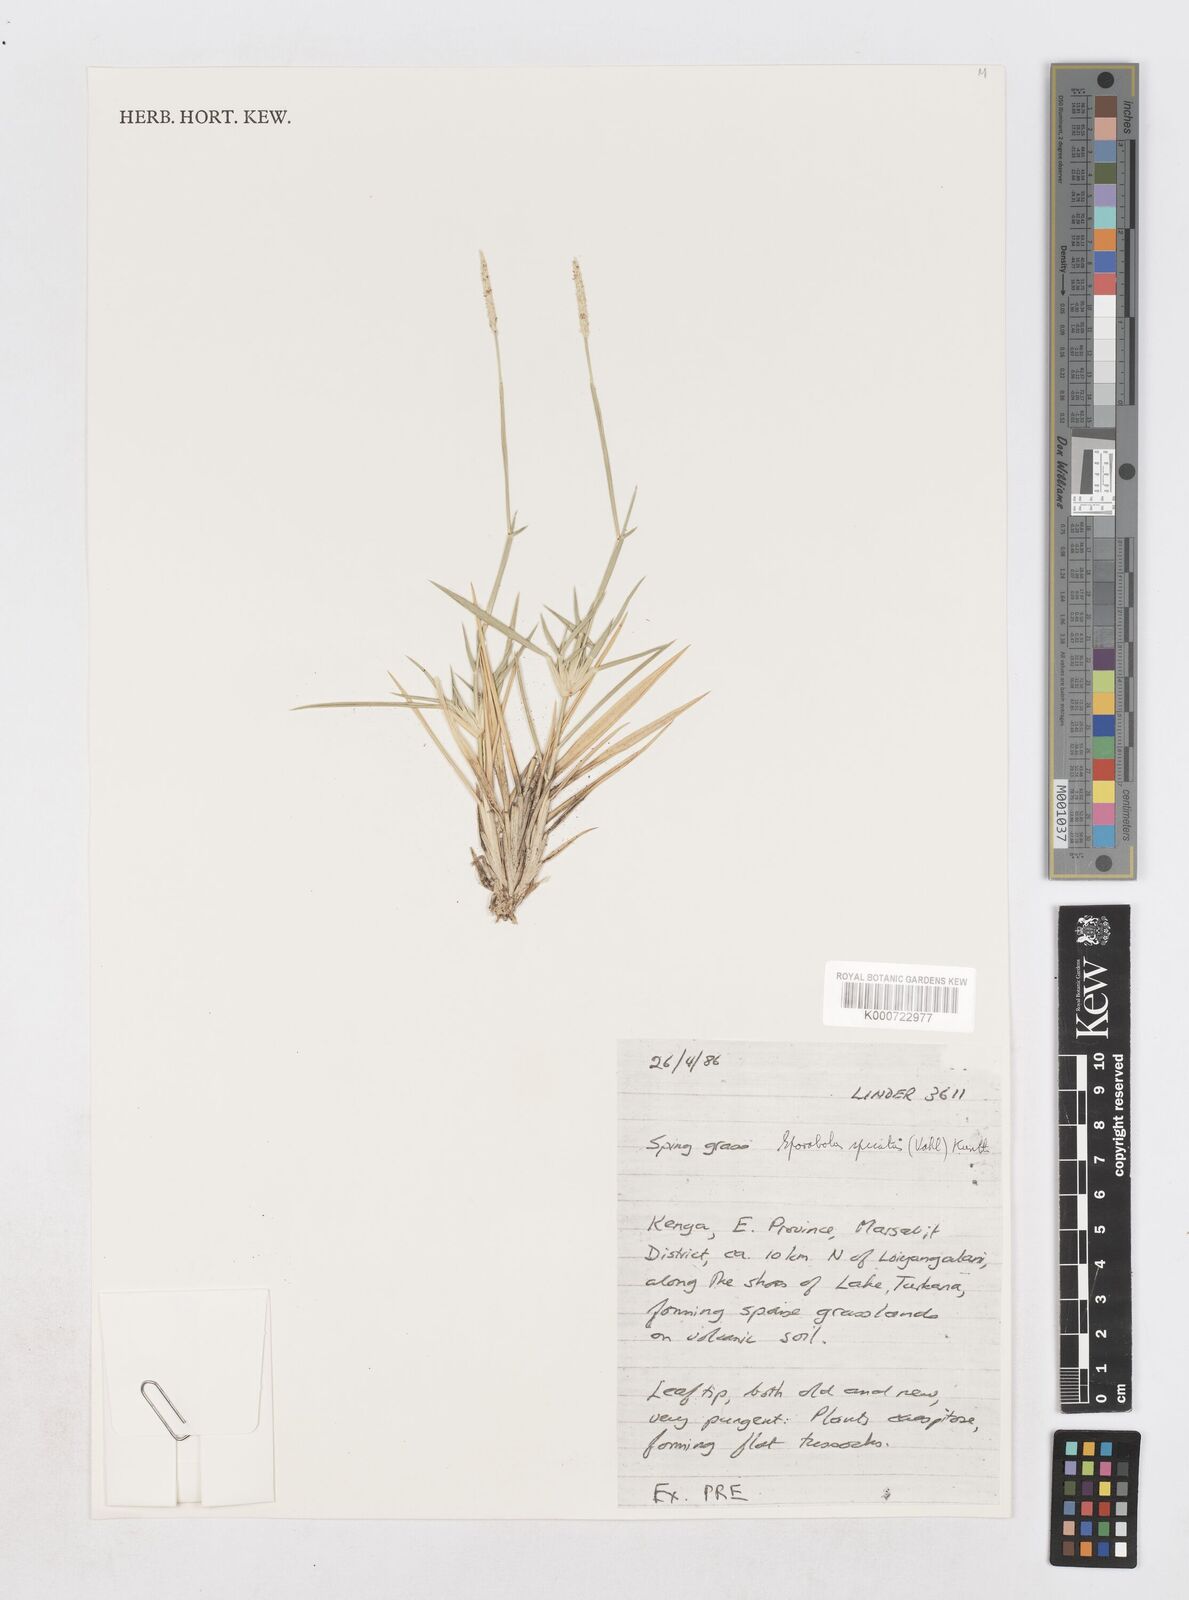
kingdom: Plantae
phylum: Tracheophyta
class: Liliopsida
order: Poales
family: Poaceae
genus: Sporobolus
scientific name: Sporobolus spicatus
